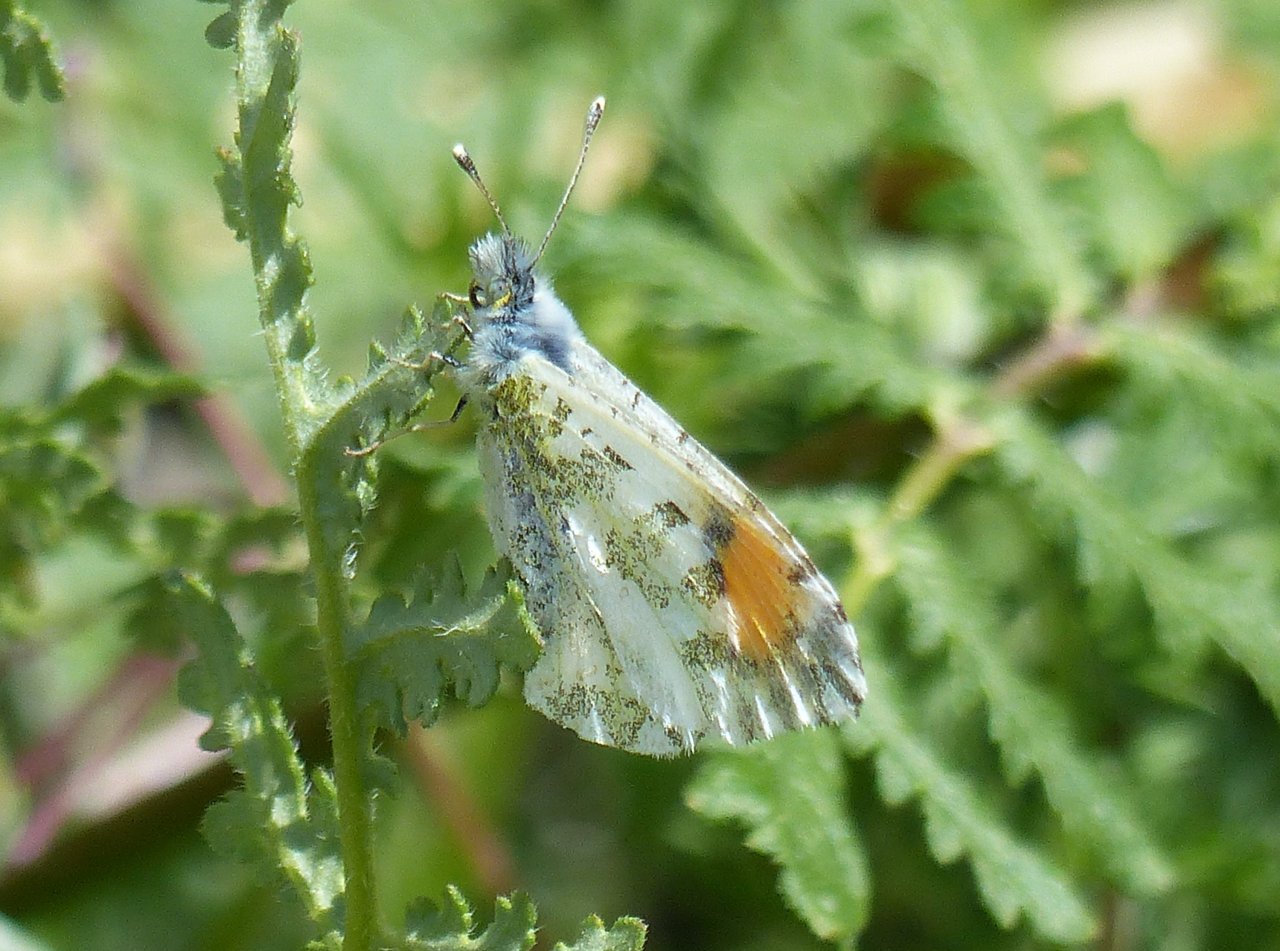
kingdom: Animalia
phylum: Arthropoda
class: Insecta
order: Lepidoptera
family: Pieridae
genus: Anthocharis
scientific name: Anthocharis cethura
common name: Desert Orangetip
